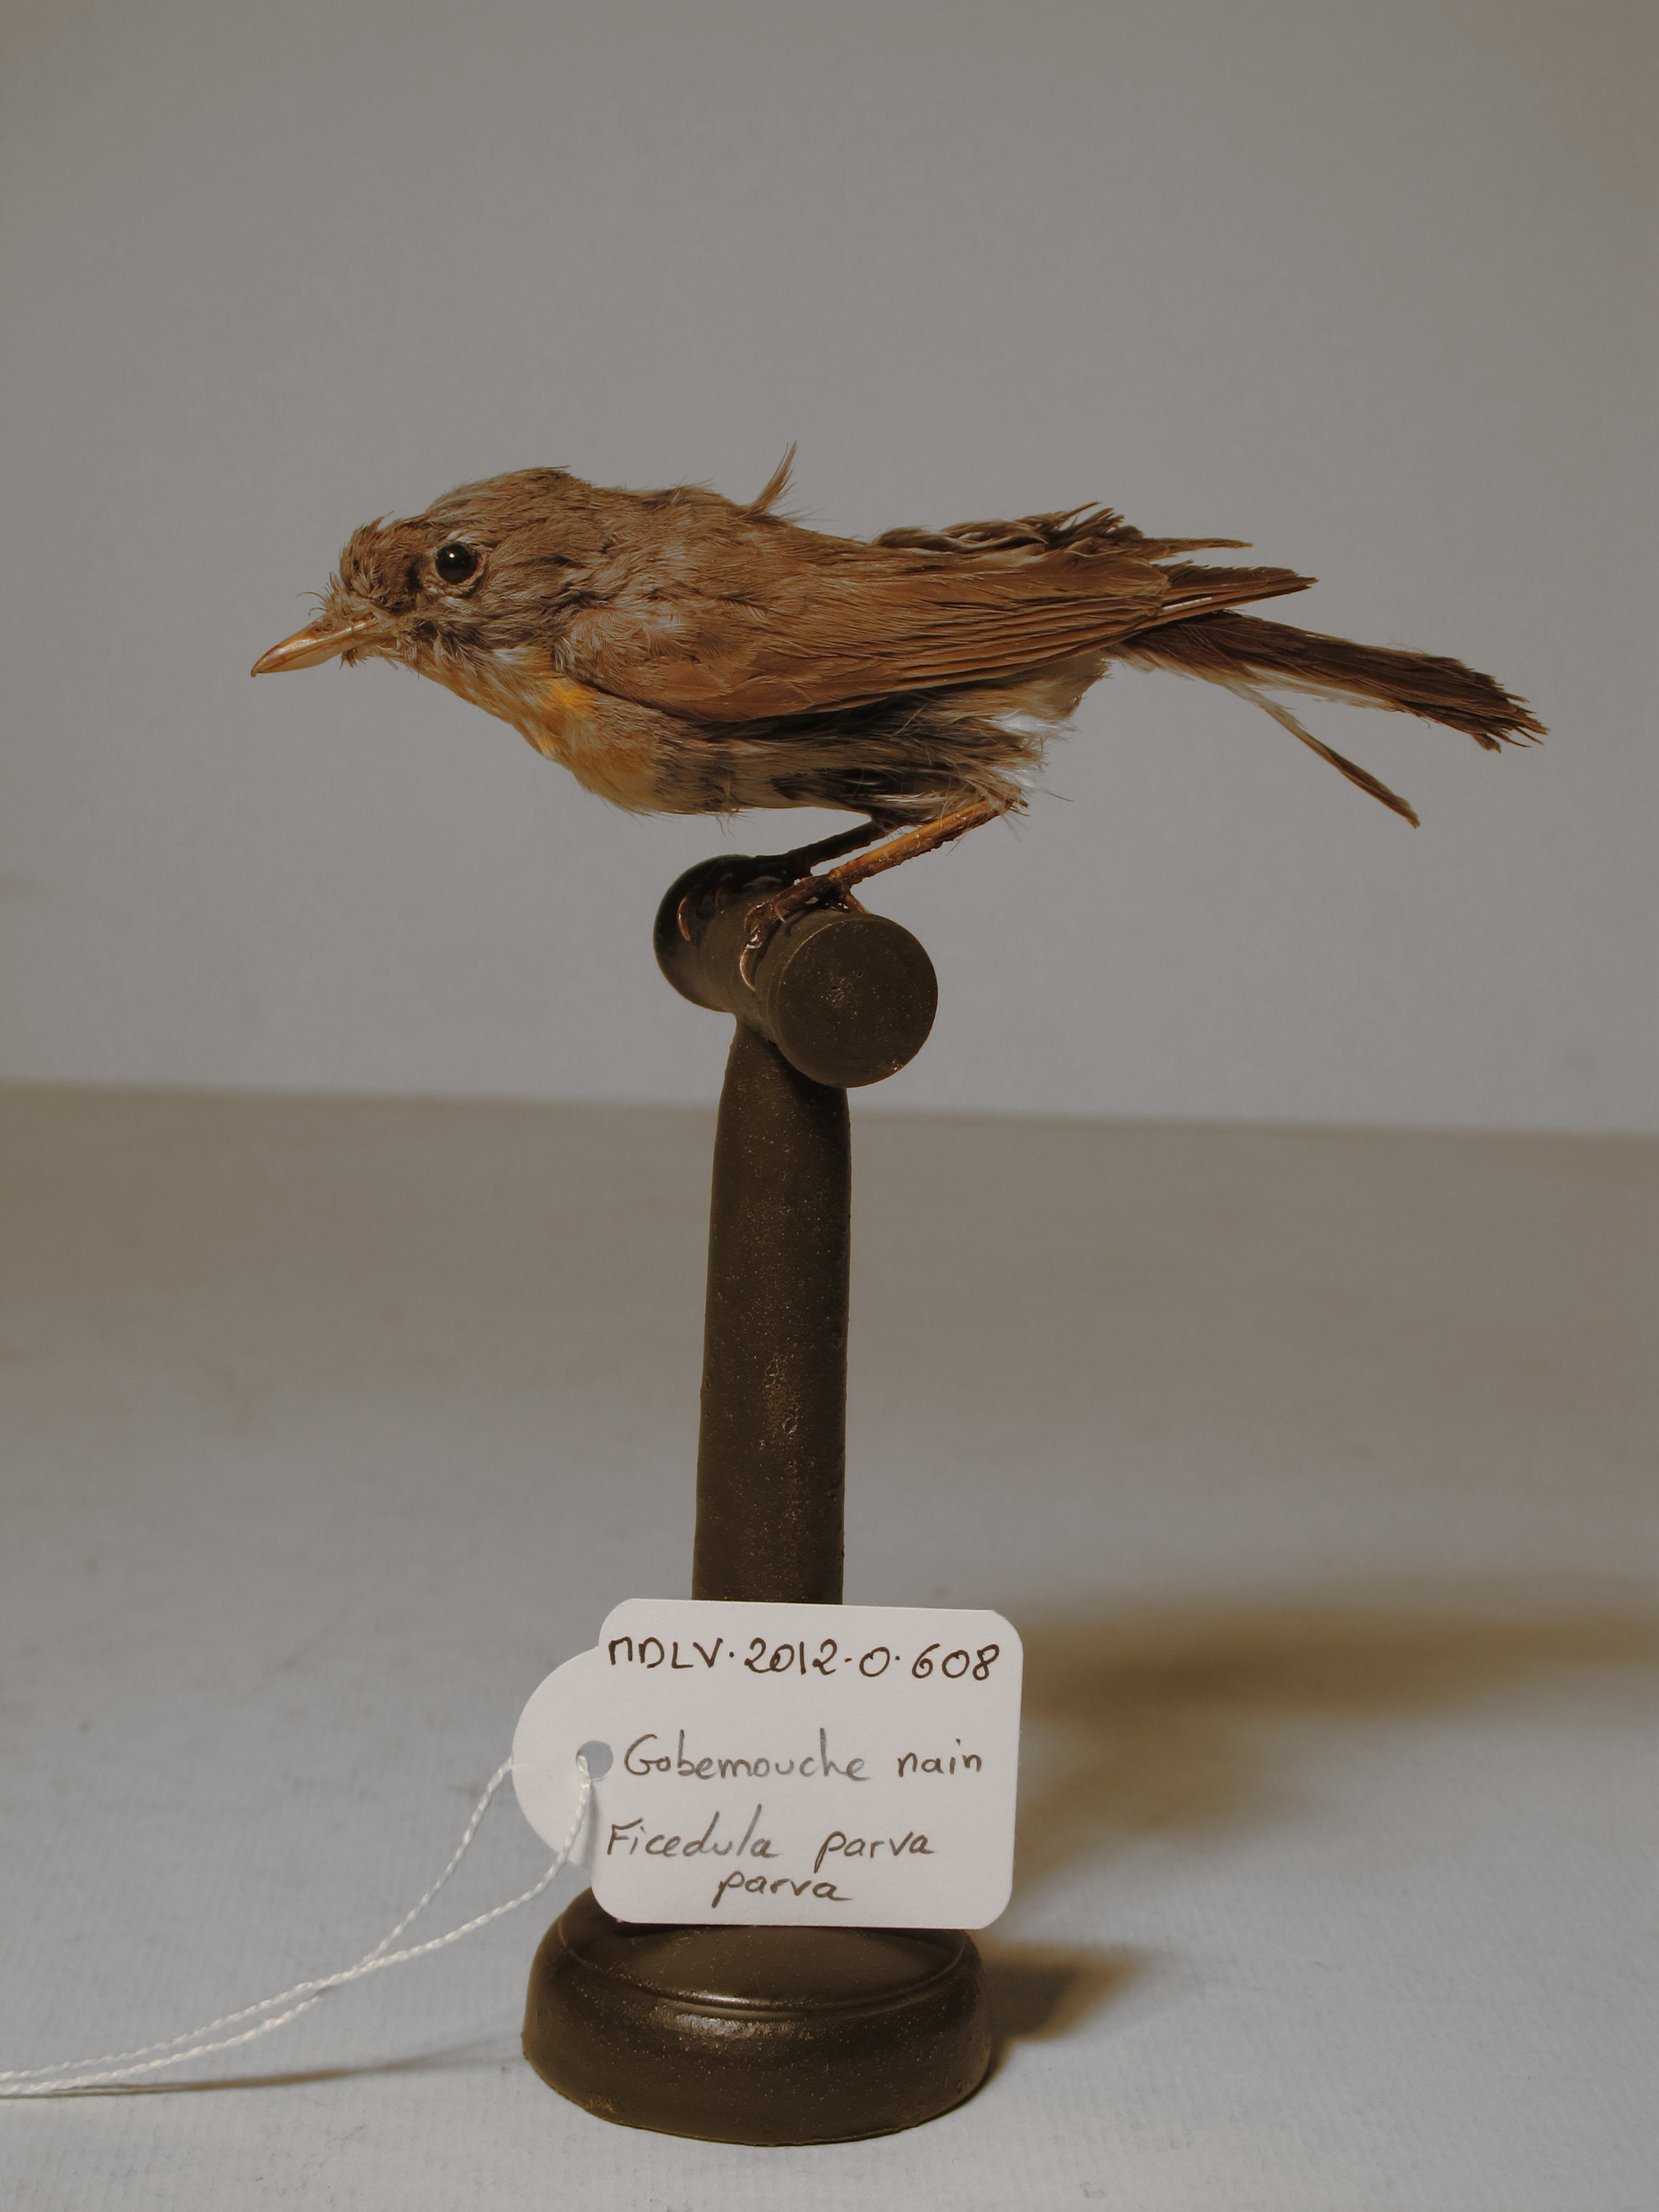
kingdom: Animalia
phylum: Chordata
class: Aves
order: Passeriformes
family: Muscicapidae
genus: Ficedula
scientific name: Ficedula parva
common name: Red-breasted Flycatcher
